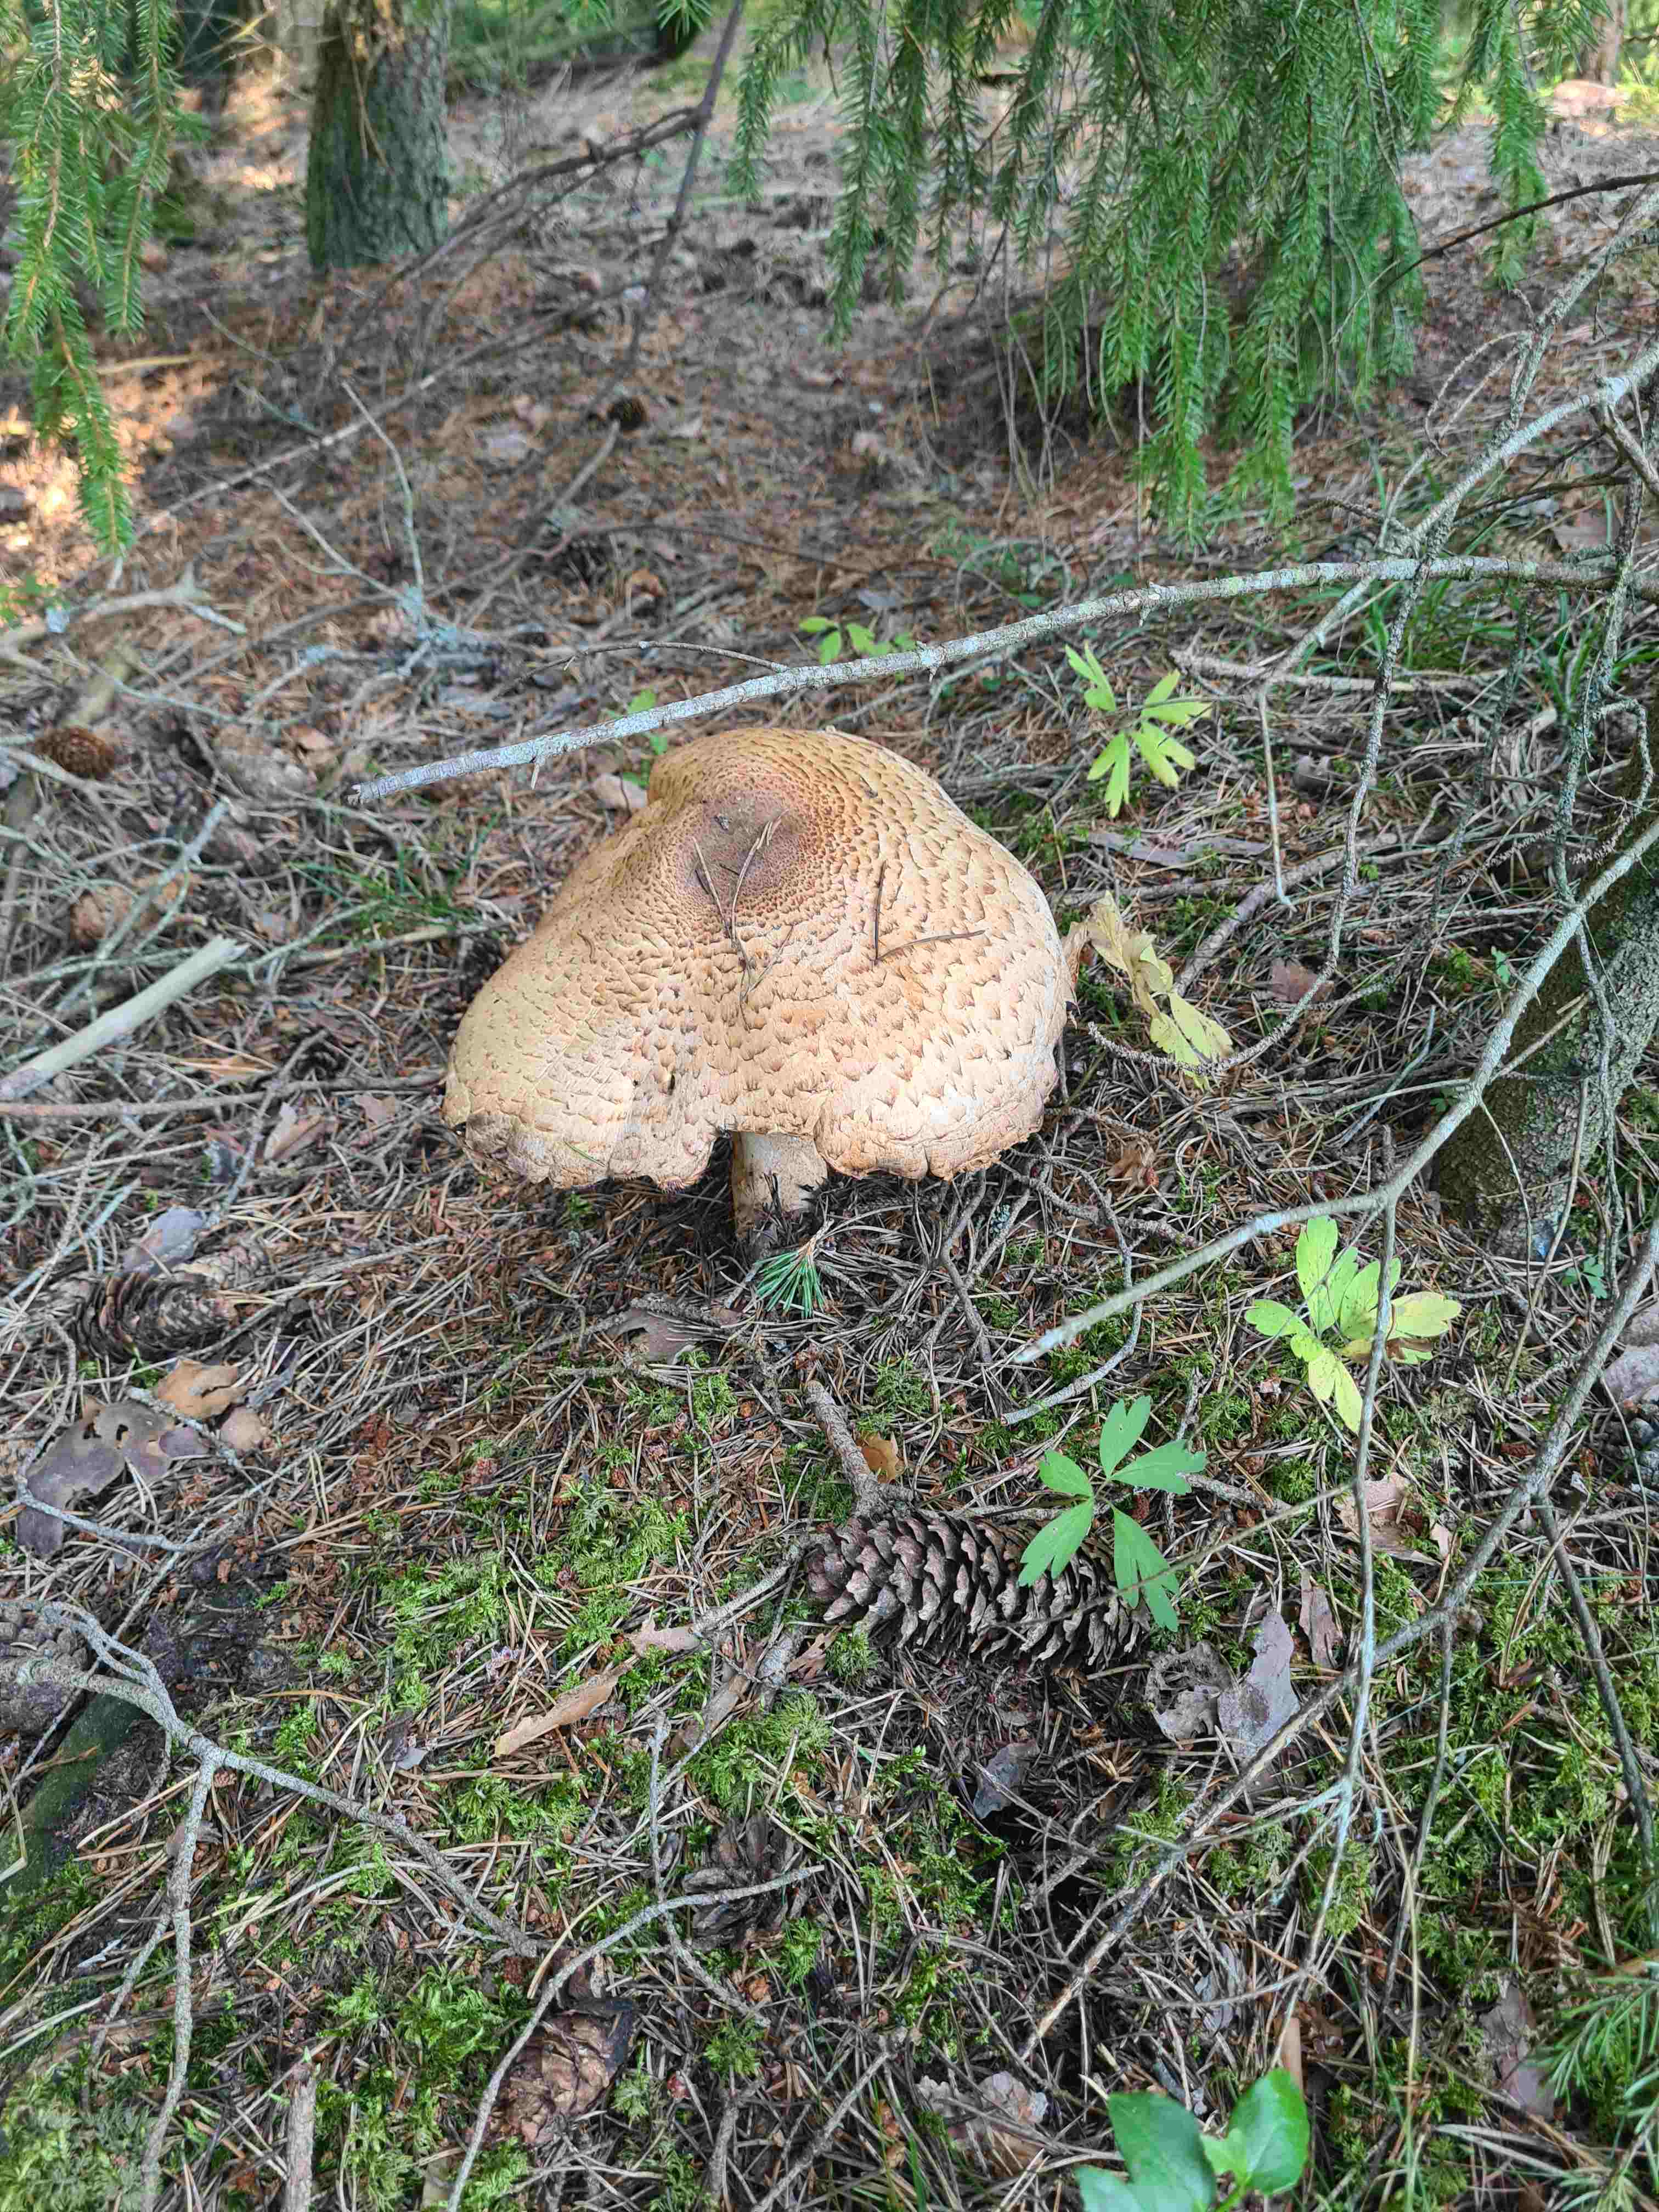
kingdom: Fungi
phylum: Basidiomycota
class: Agaricomycetes
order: Agaricales
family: Agaricaceae
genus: Agaricus
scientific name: Agaricus augustus
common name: prægtig champignon
